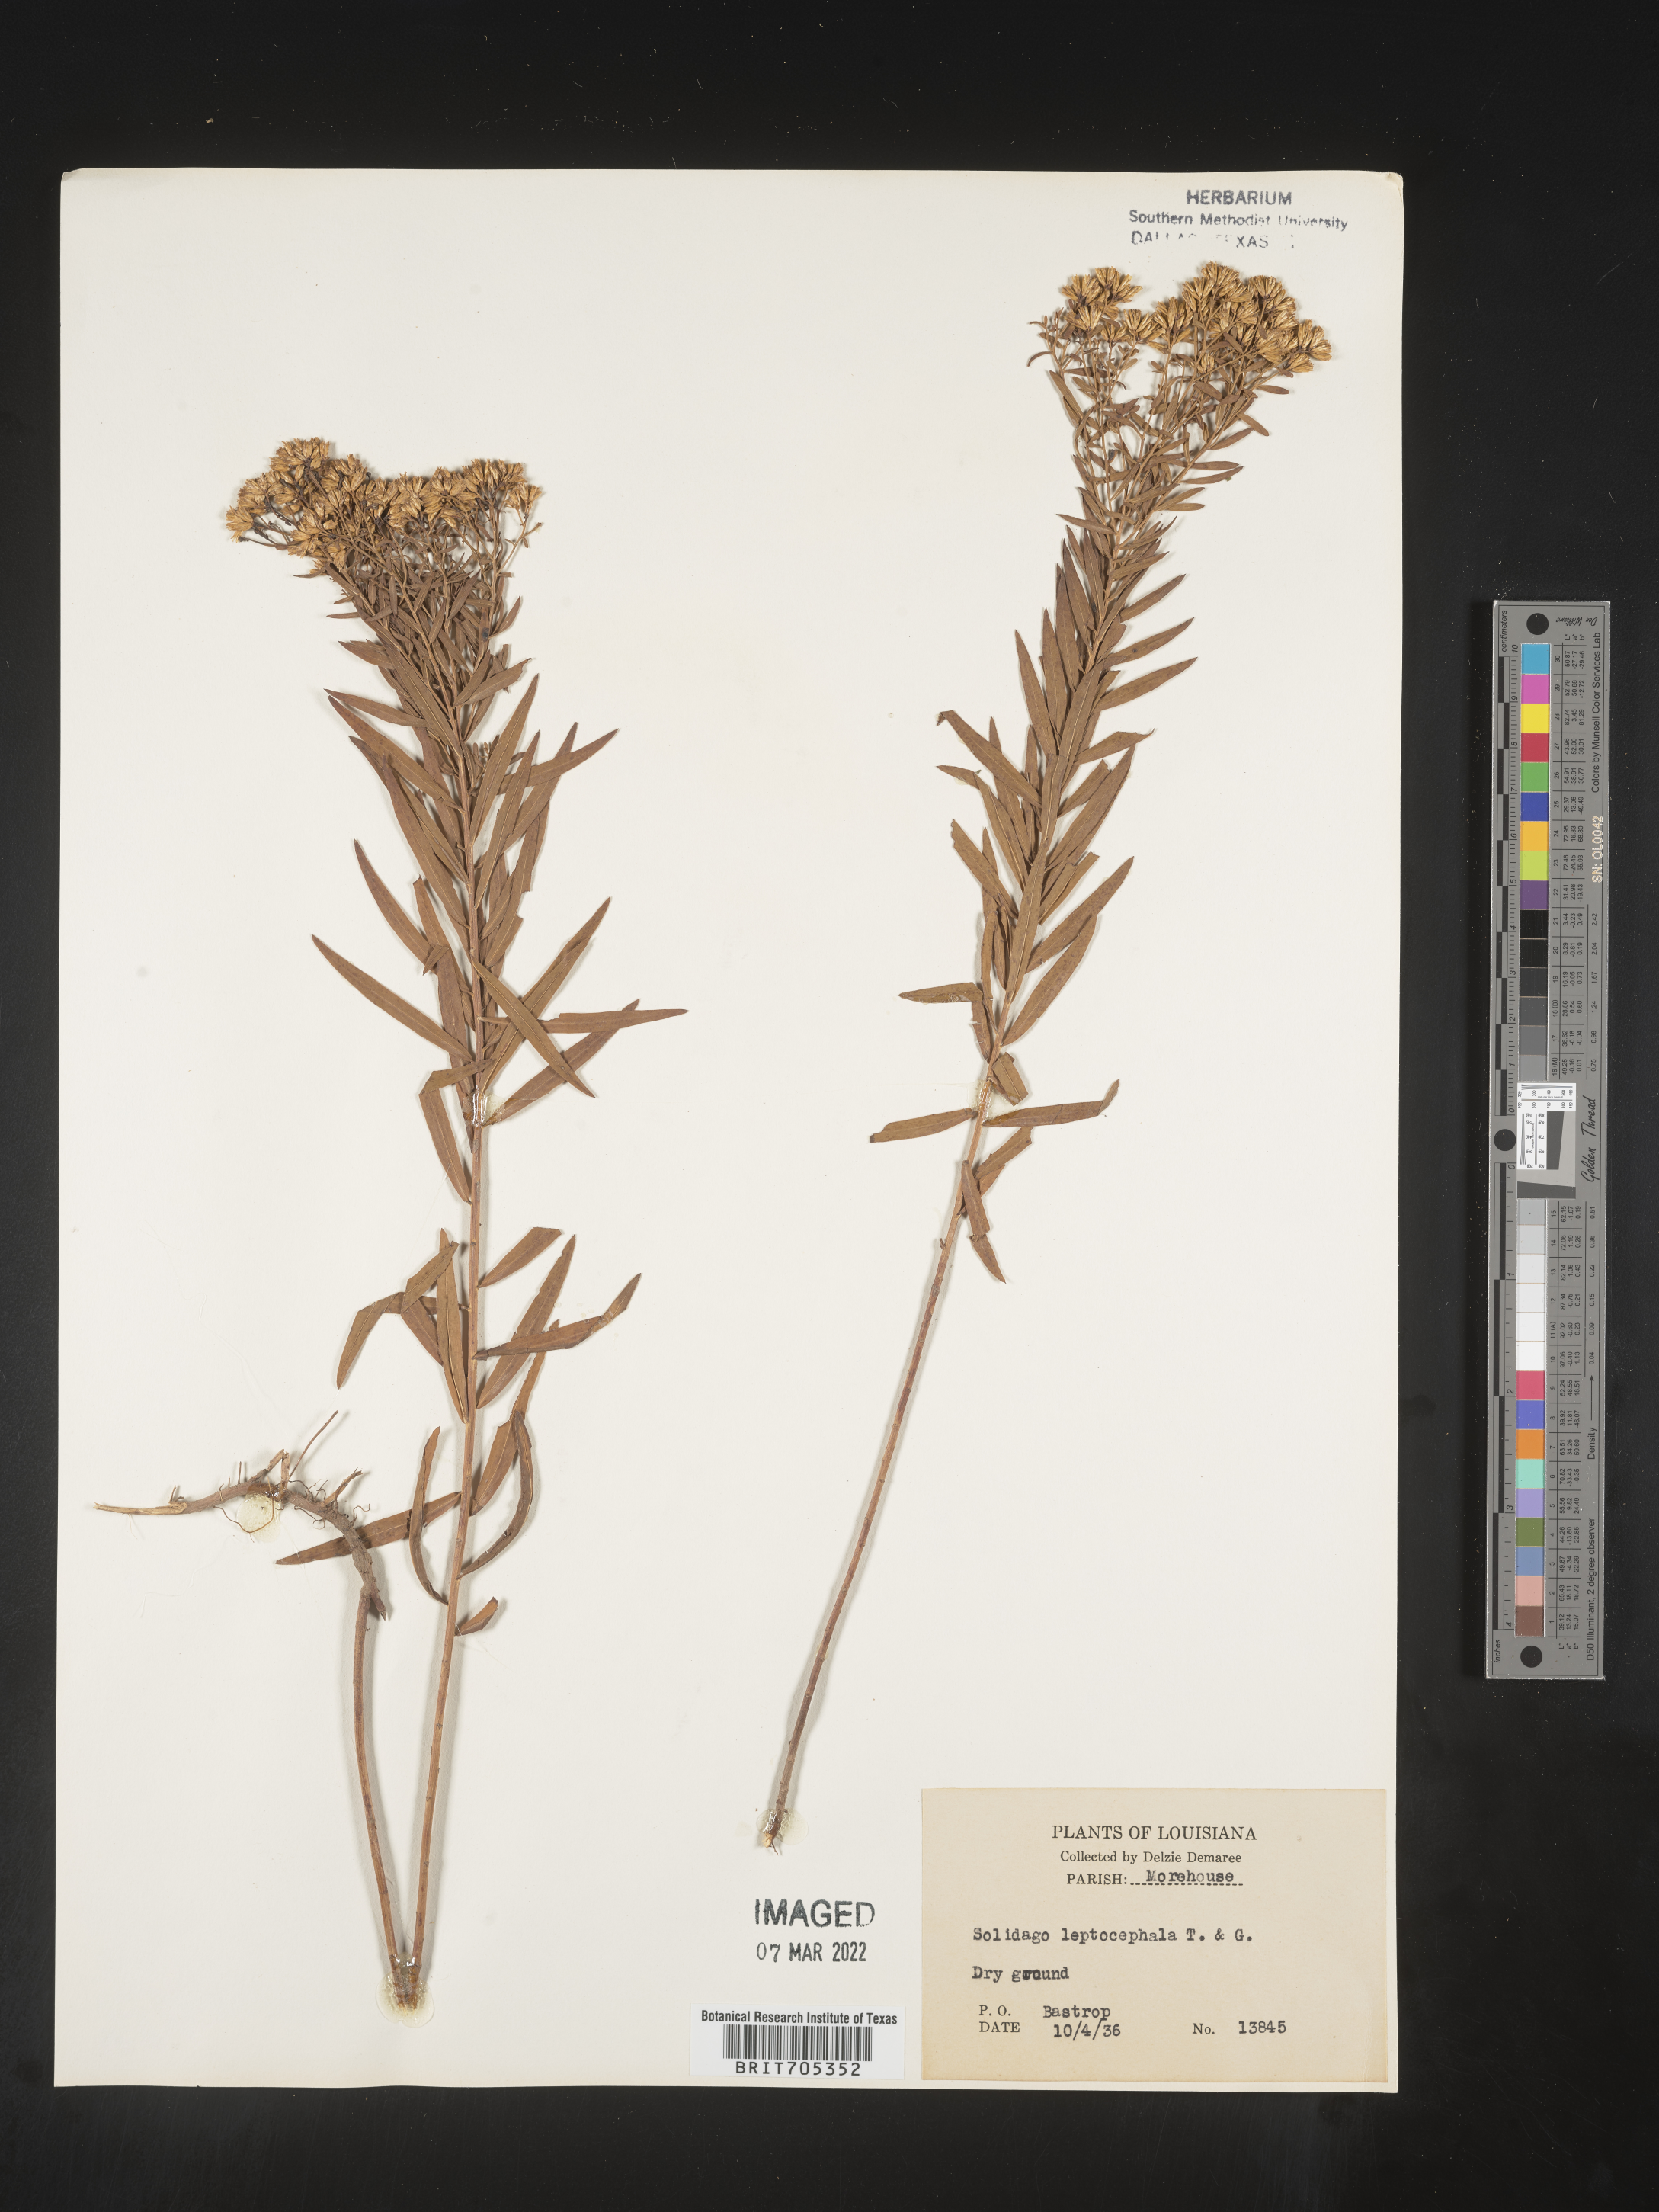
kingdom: Plantae
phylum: Tracheophyta
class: Magnoliopsida
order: Asterales
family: Asteraceae
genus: Euthamia
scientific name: Euthamia leptocephala
